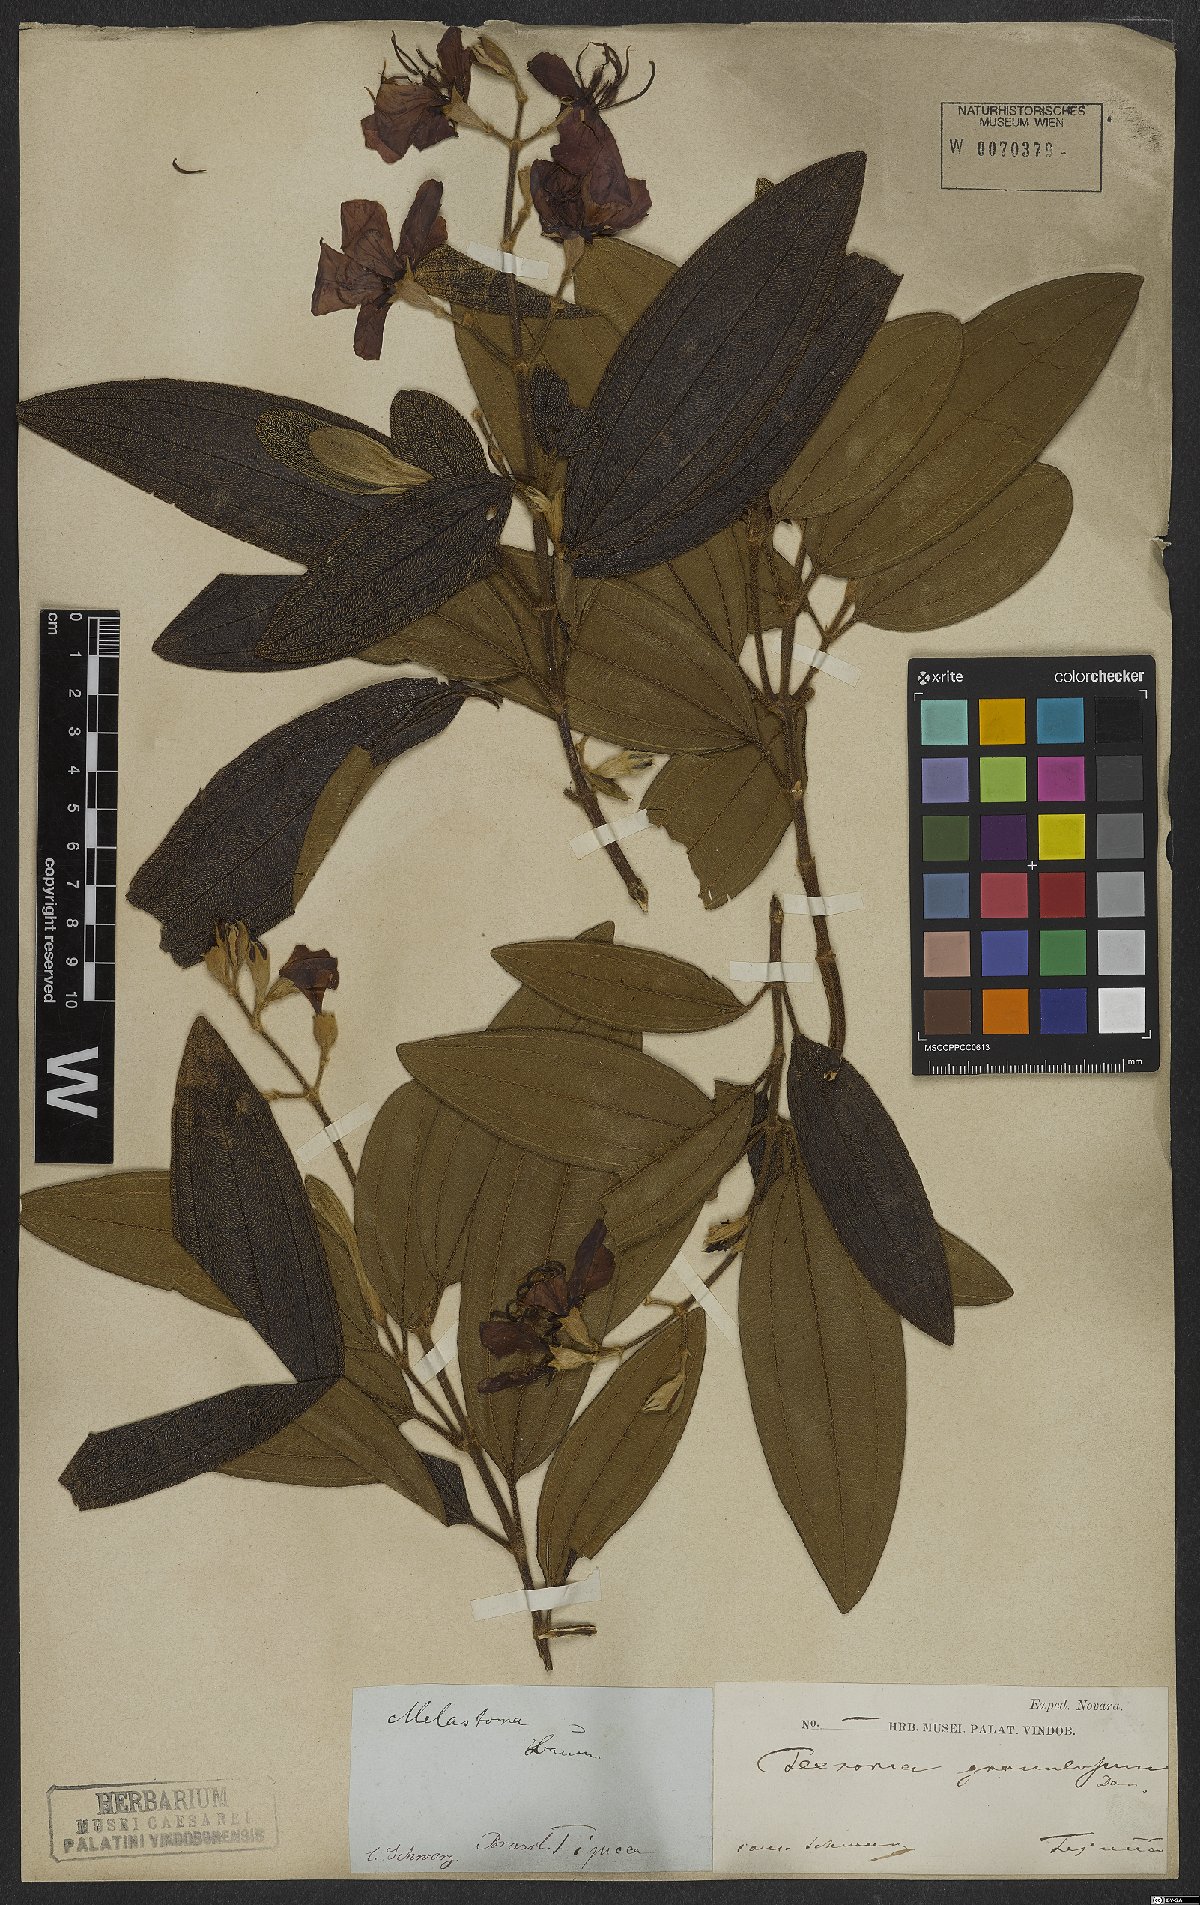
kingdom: Plantae
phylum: Tracheophyta
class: Magnoliopsida
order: Myrtales
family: Melastomataceae
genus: Pleroma
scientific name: Pleroma granulosum
